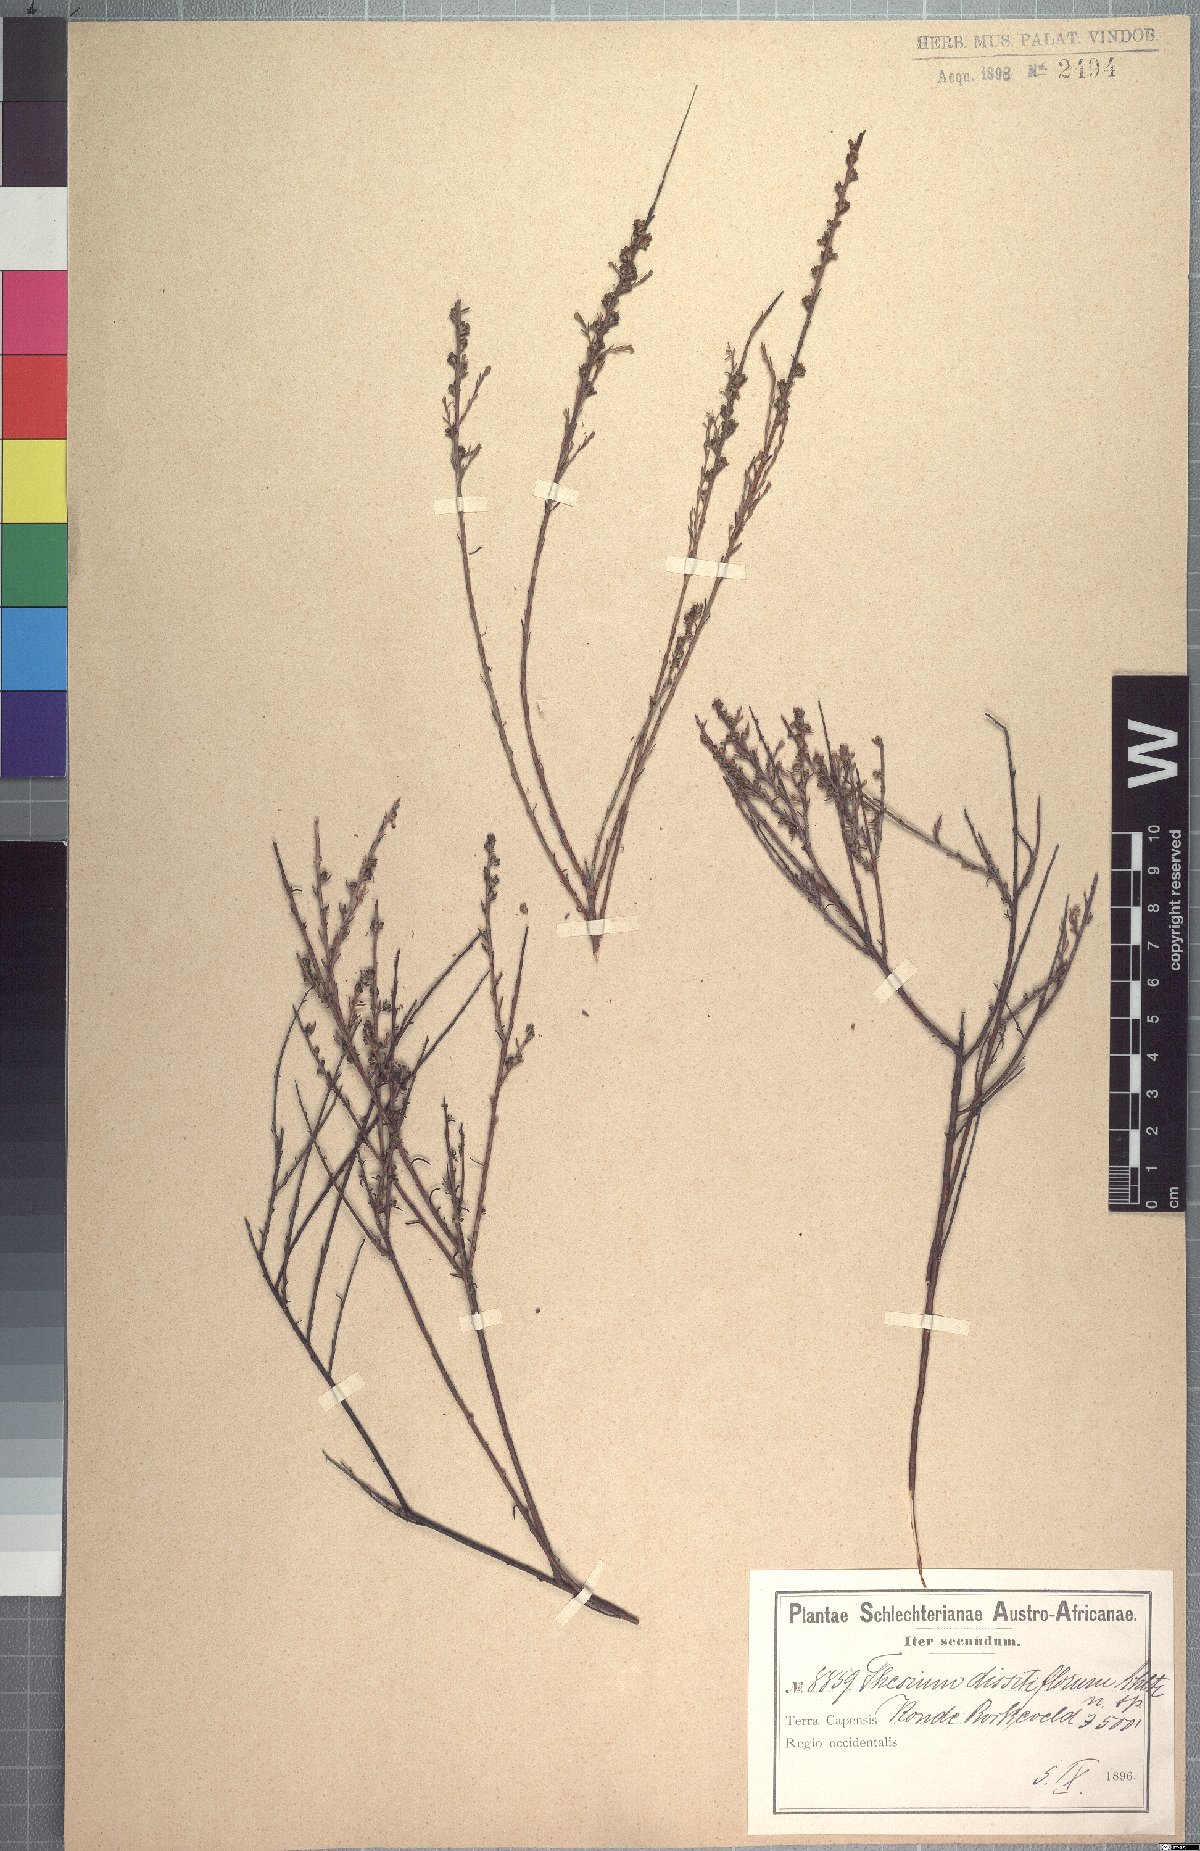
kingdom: Plantae
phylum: Tracheophyta
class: Magnoliopsida
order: Santalales
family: Thesiaceae
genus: Thesium
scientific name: Thesium dissitiflorum
